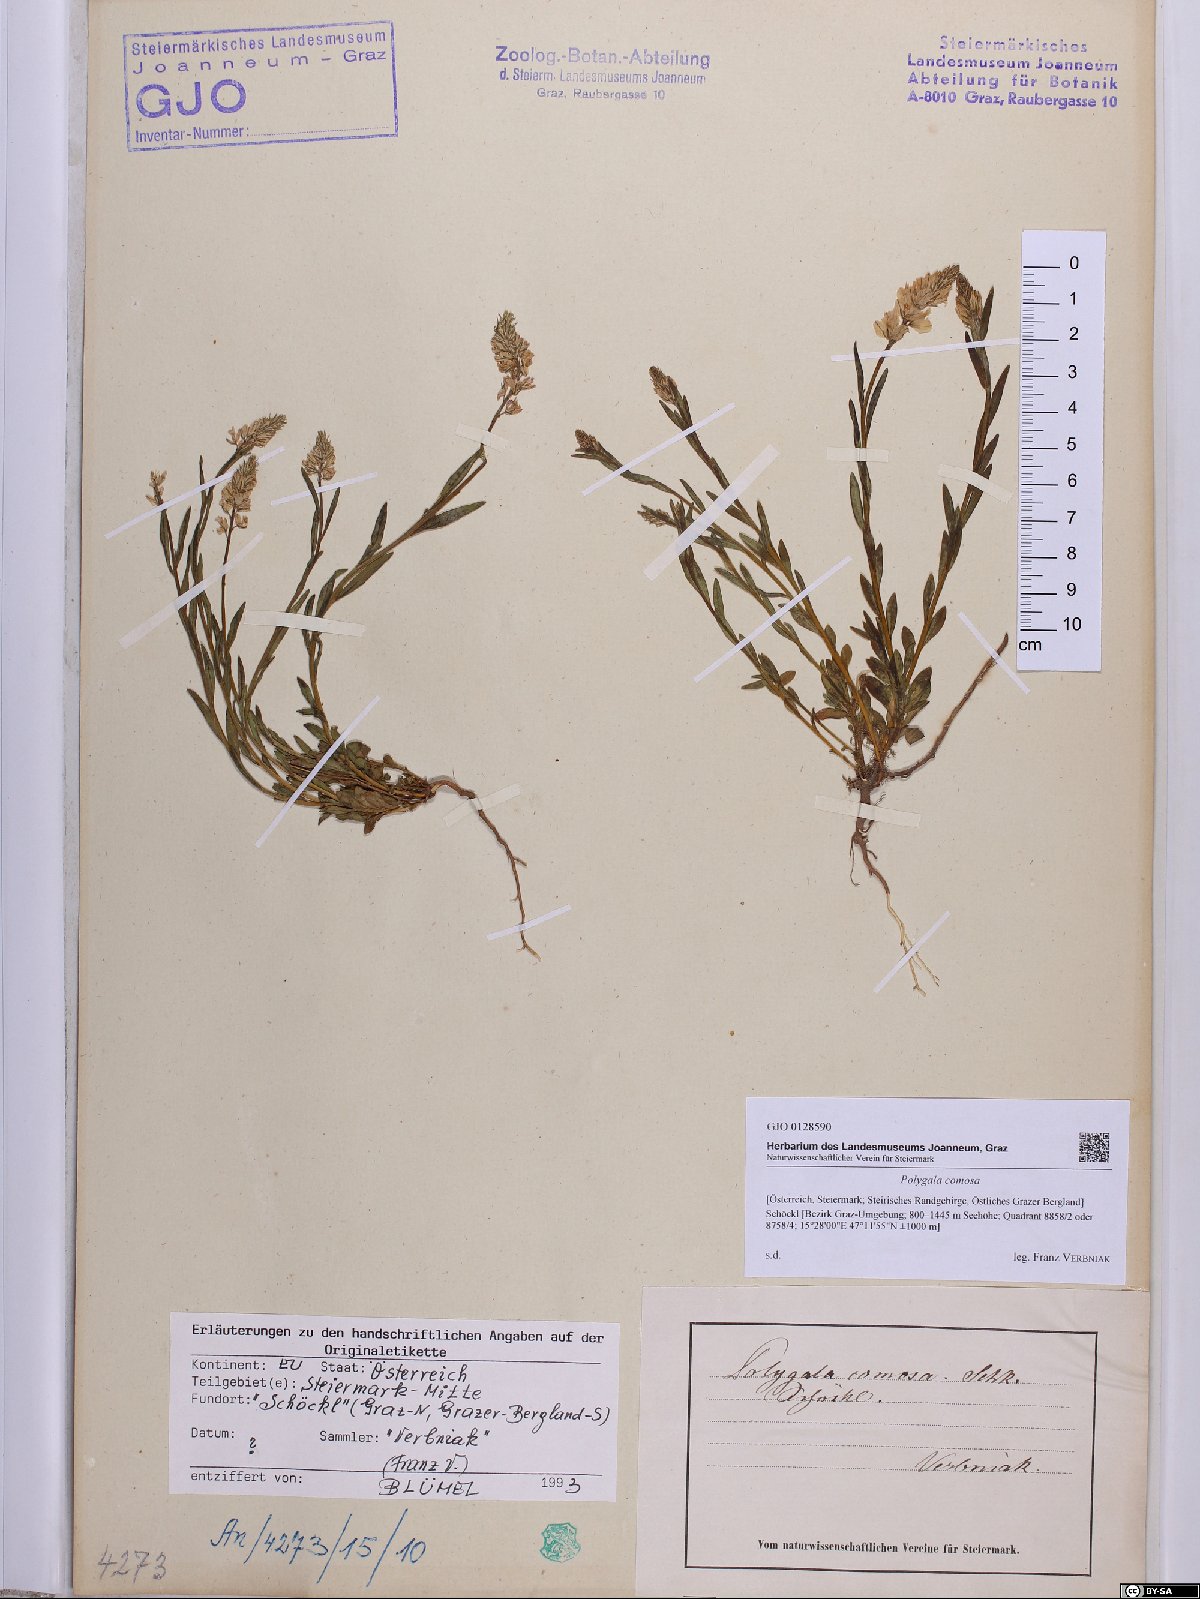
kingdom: Plantae
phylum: Tracheophyta
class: Magnoliopsida
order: Fabales
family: Polygalaceae
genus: Polygala
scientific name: Polygala comosa
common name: Tufted milkwort
